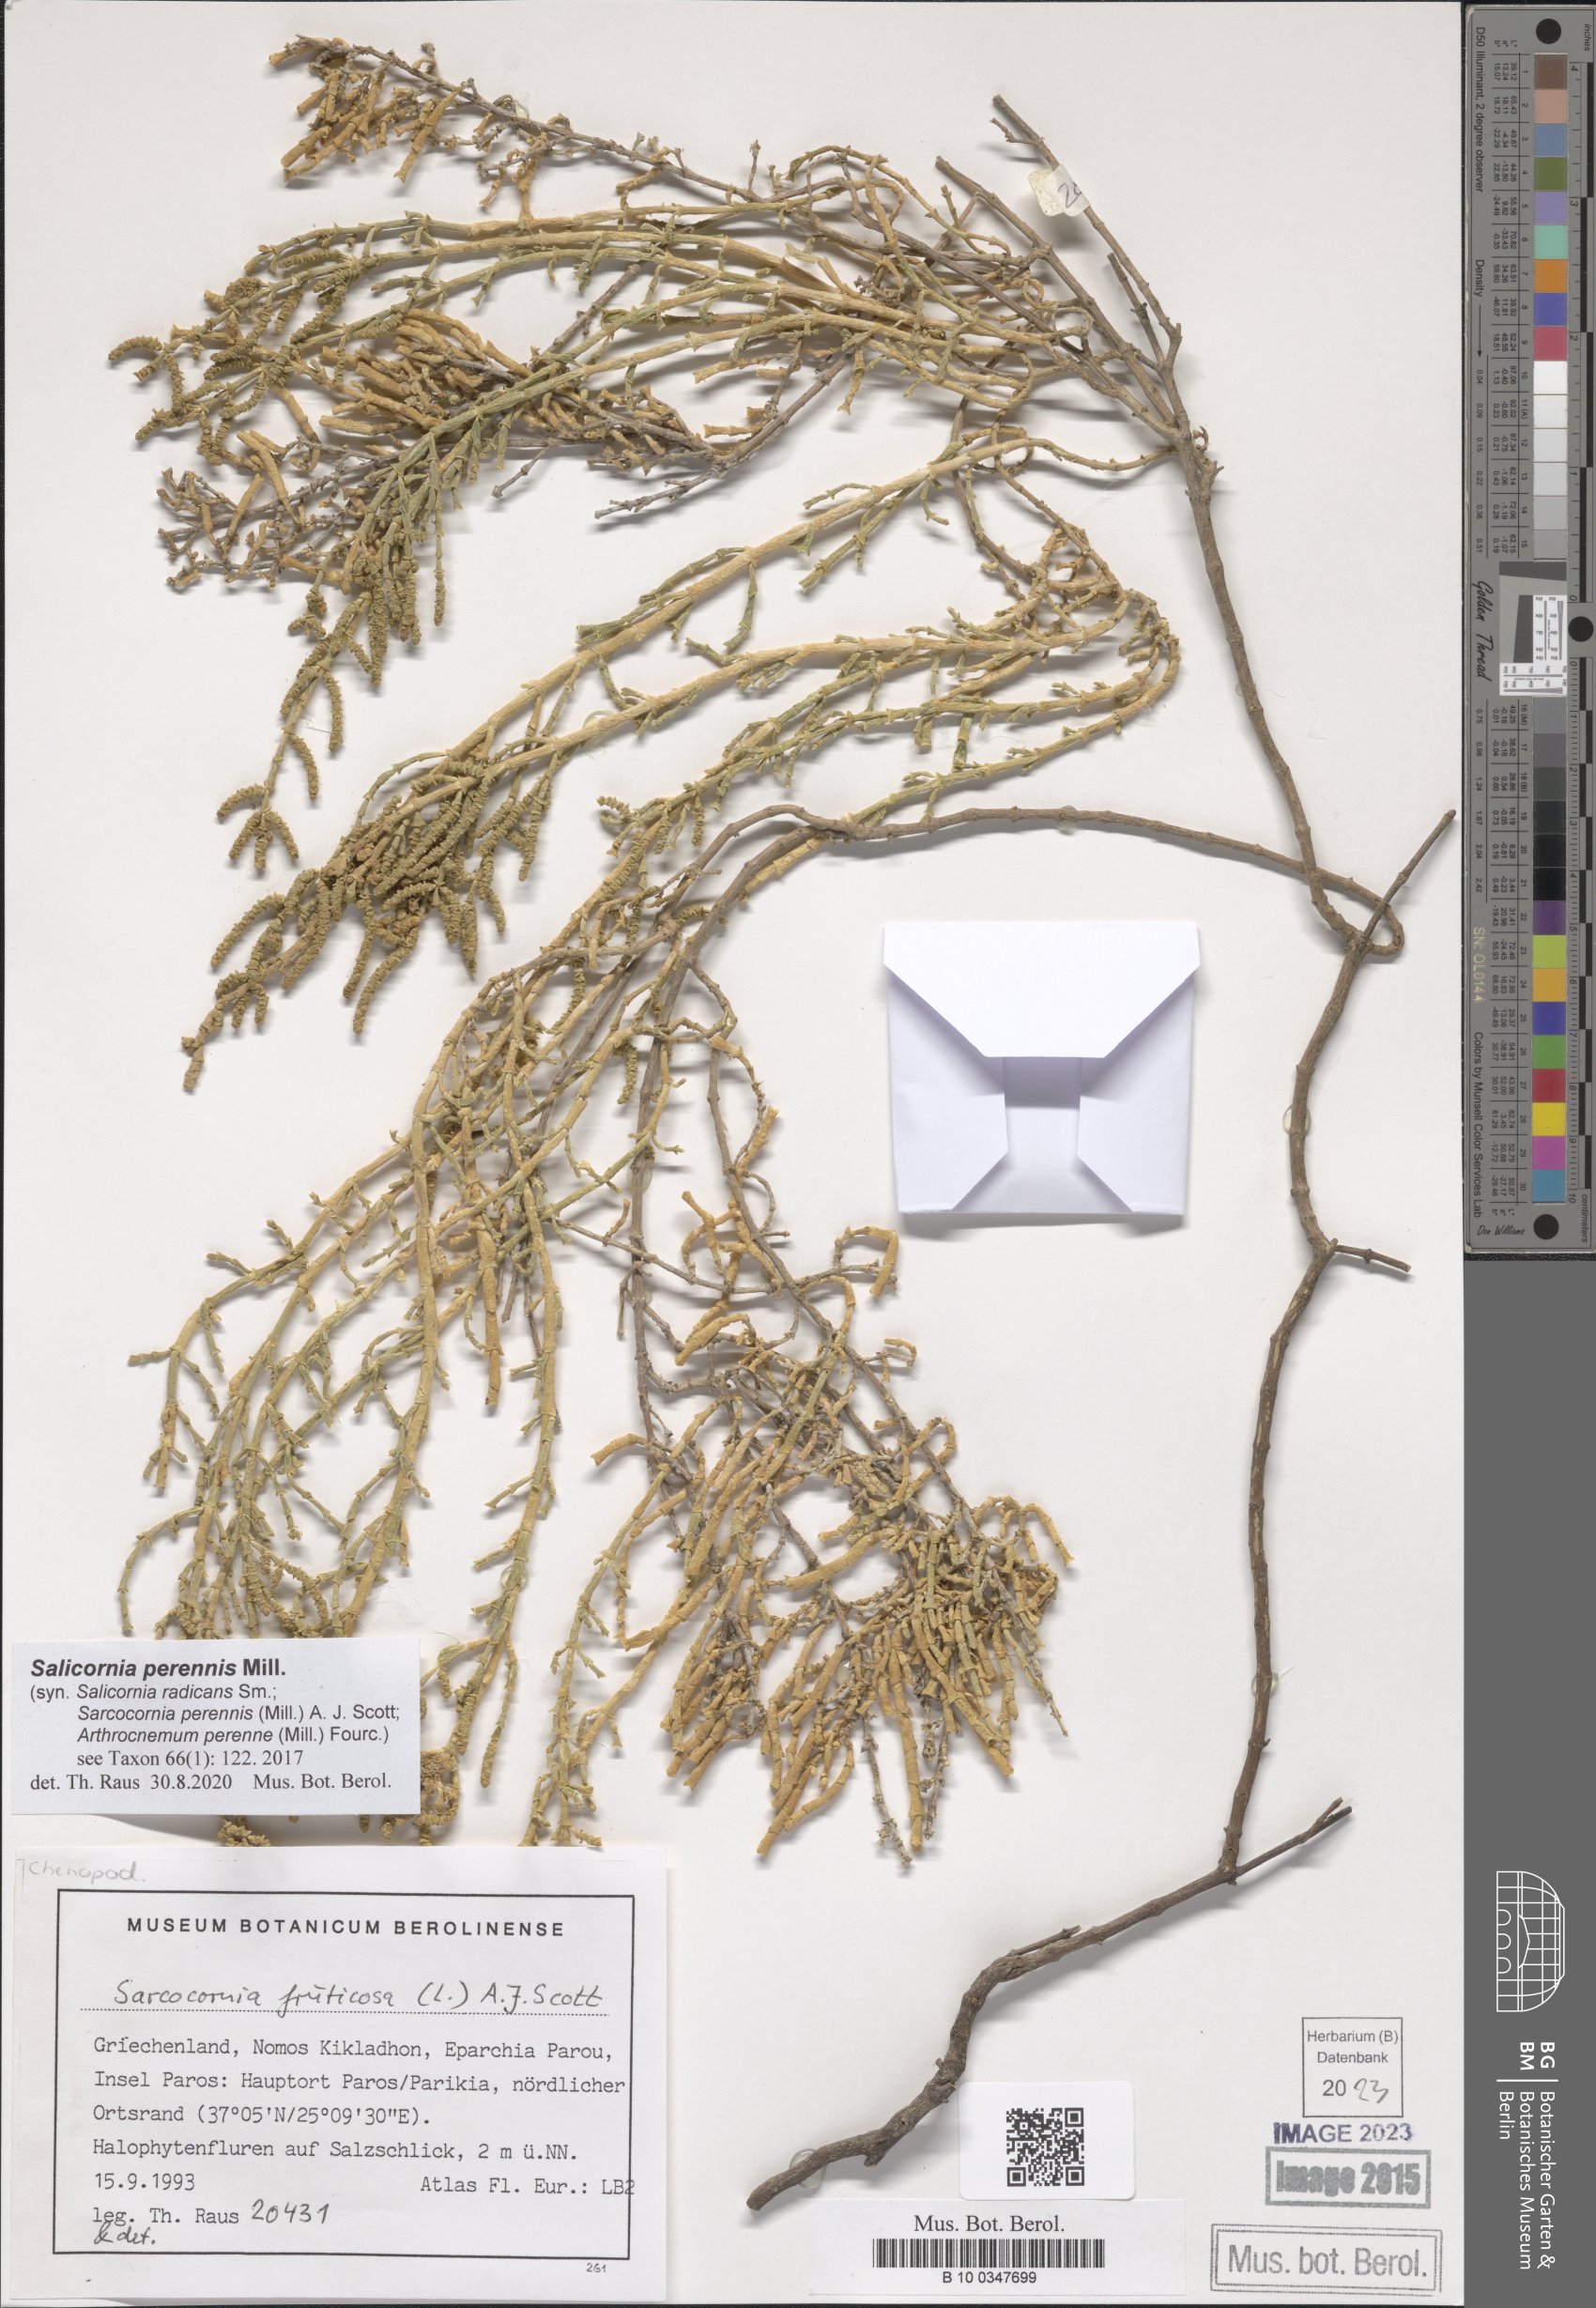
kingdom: Plantae
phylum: Tracheophyta
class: Magnoliopsida
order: Caryophyllales
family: Amaranthaceae
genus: Salicornia
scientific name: Salicornia perennis
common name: Chicken claws
